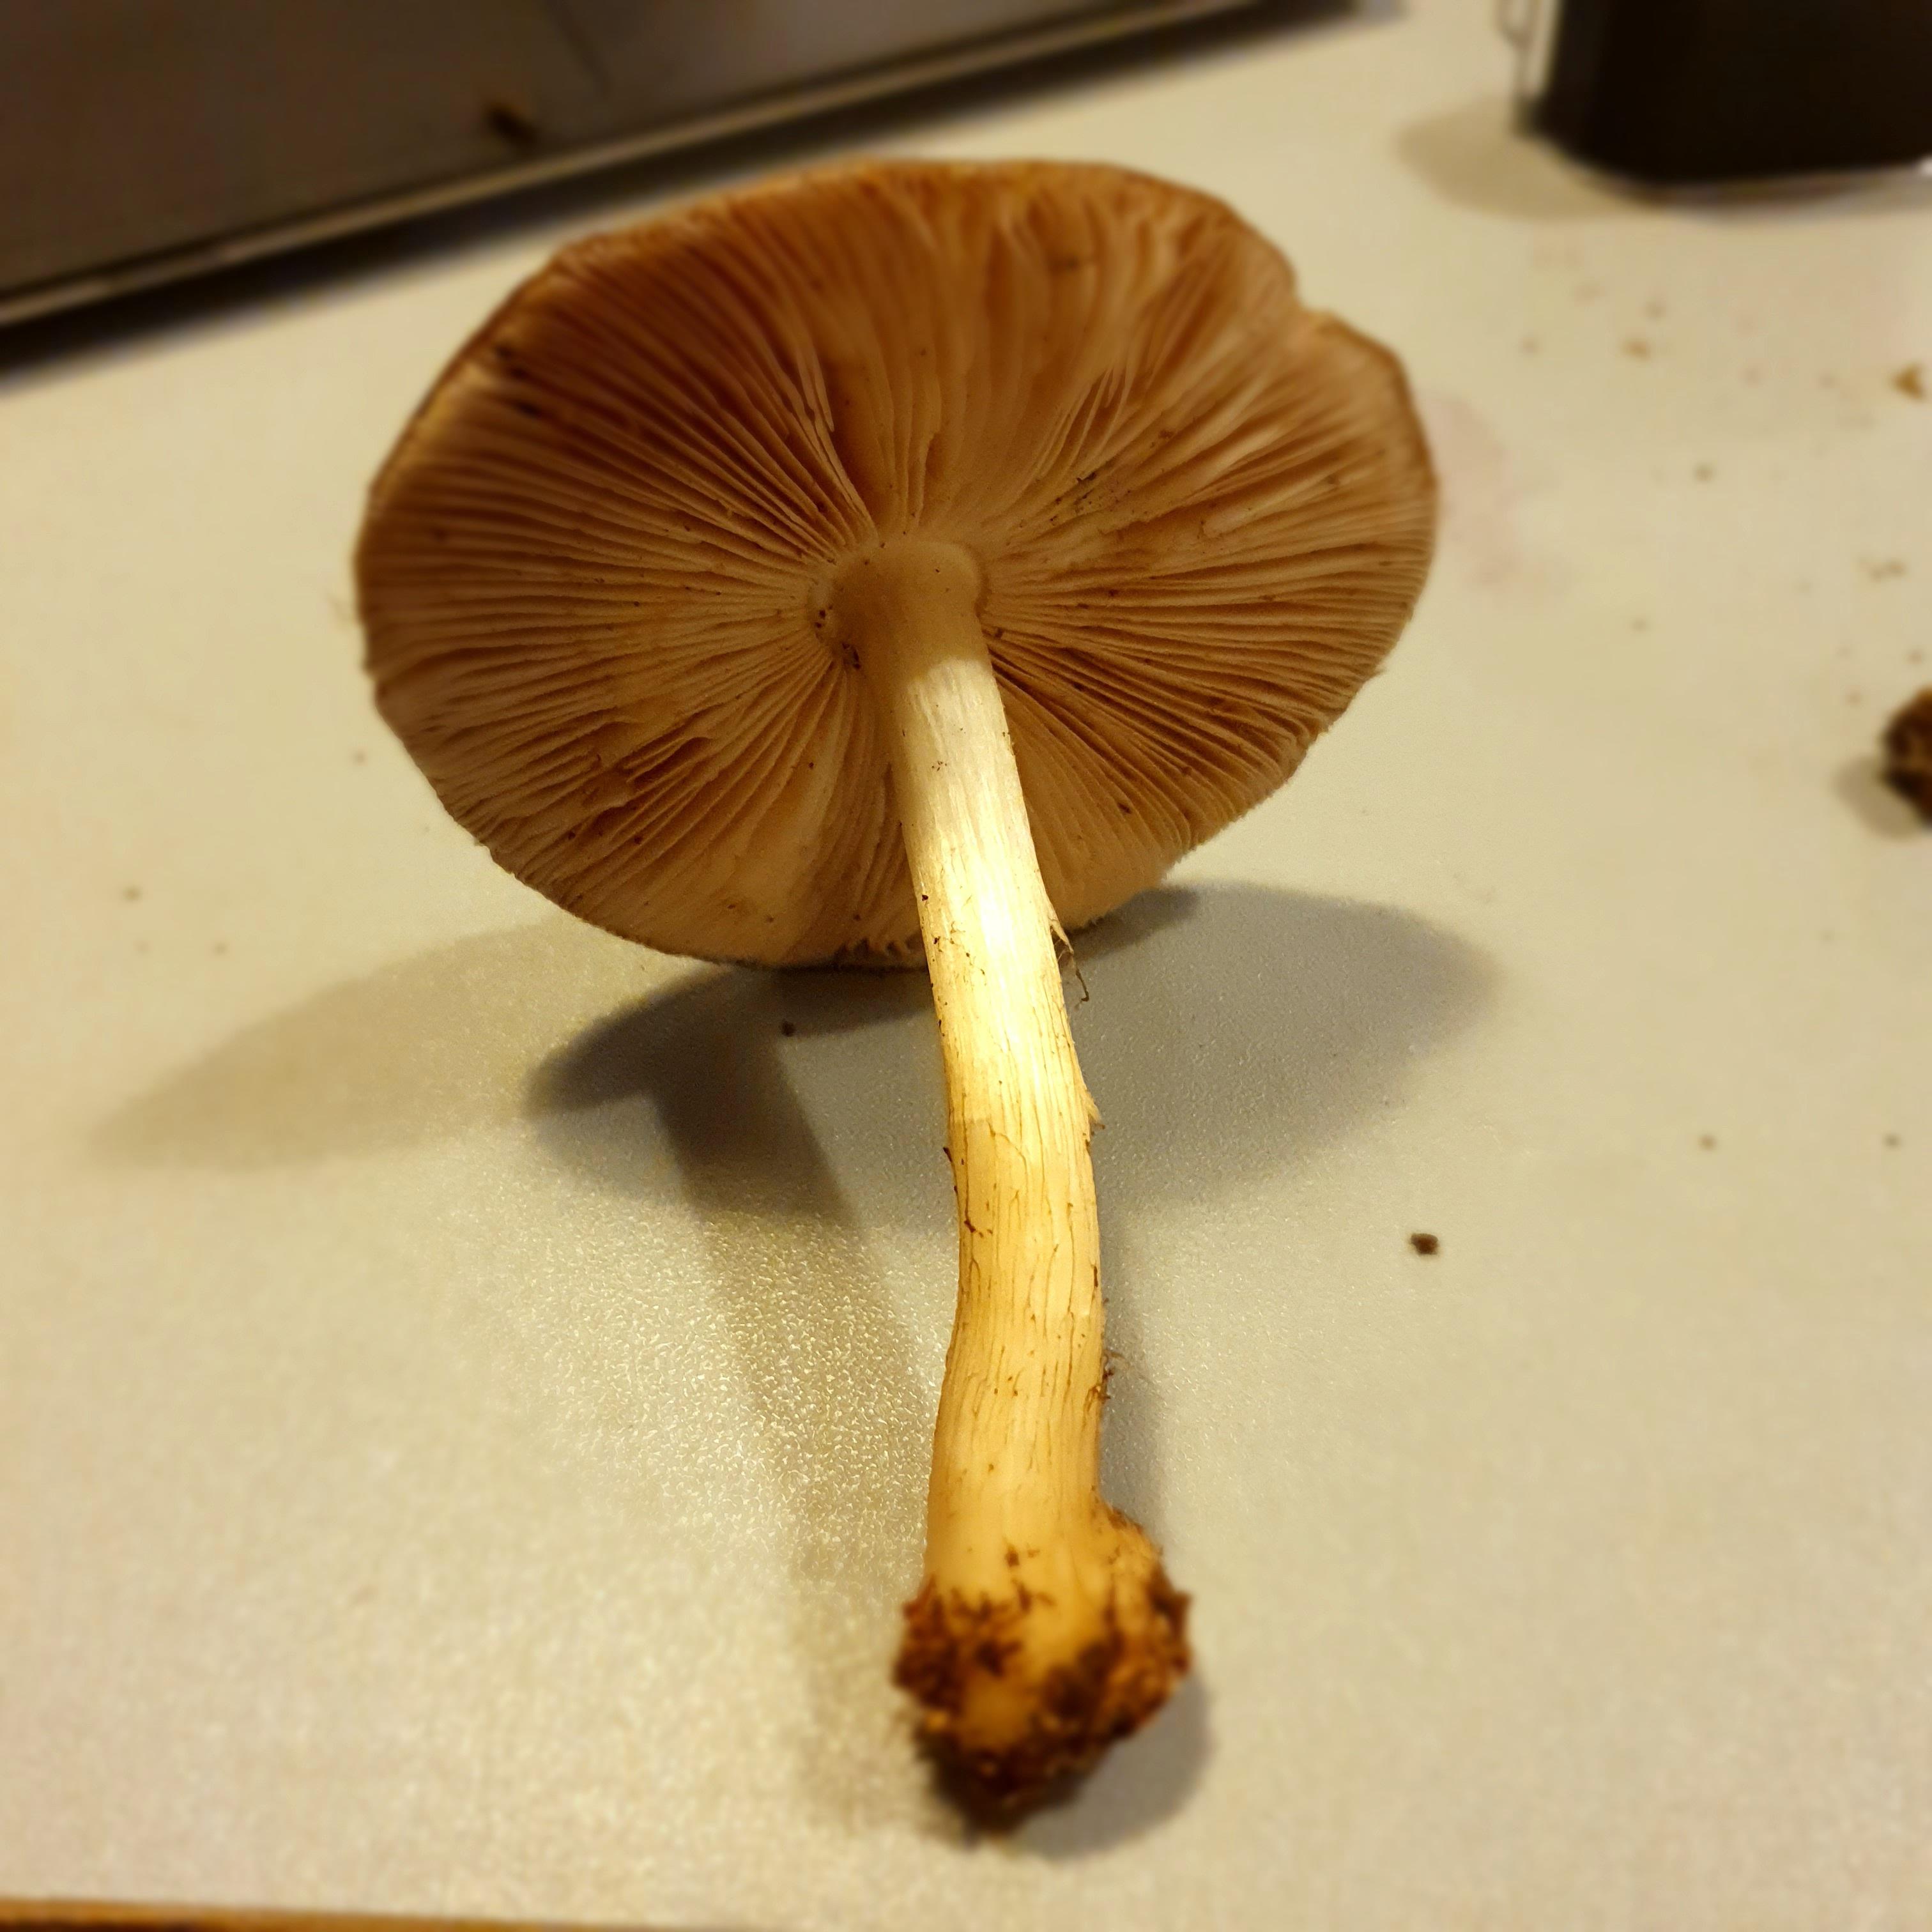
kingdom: Fungi
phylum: Basidiomycota
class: Agaricomycetes
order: Agaricales
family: Pluteaceae
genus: Pluteus
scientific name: Pluteus cervinus
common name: sodfarvet skærmhat
